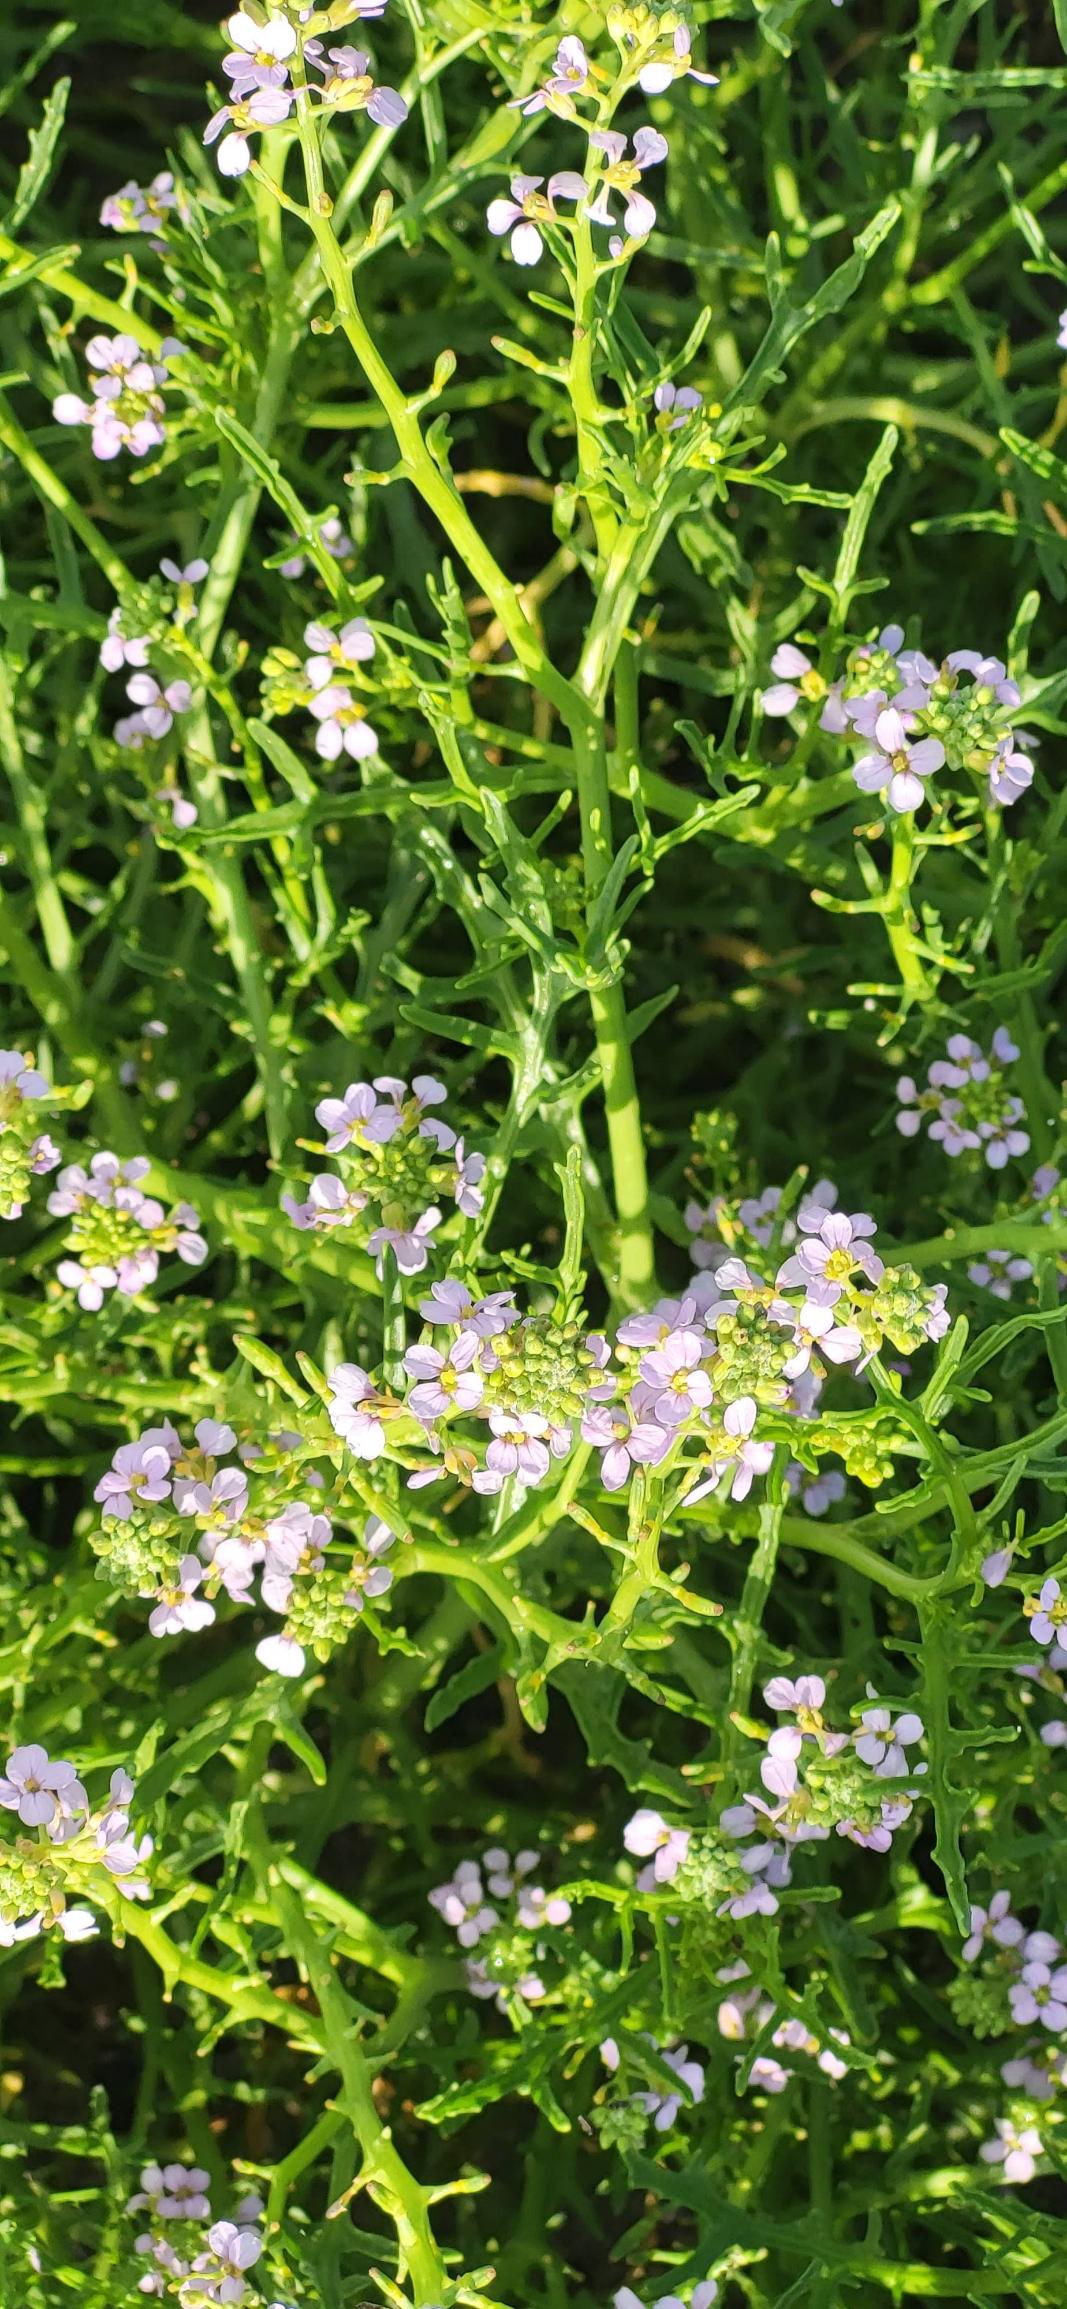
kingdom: Plantae
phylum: Tracheophyta
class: Magnoliopsida
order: Brassicales
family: Brassicaceae
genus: Cakile
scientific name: Cakile maritima
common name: Strandsennep
